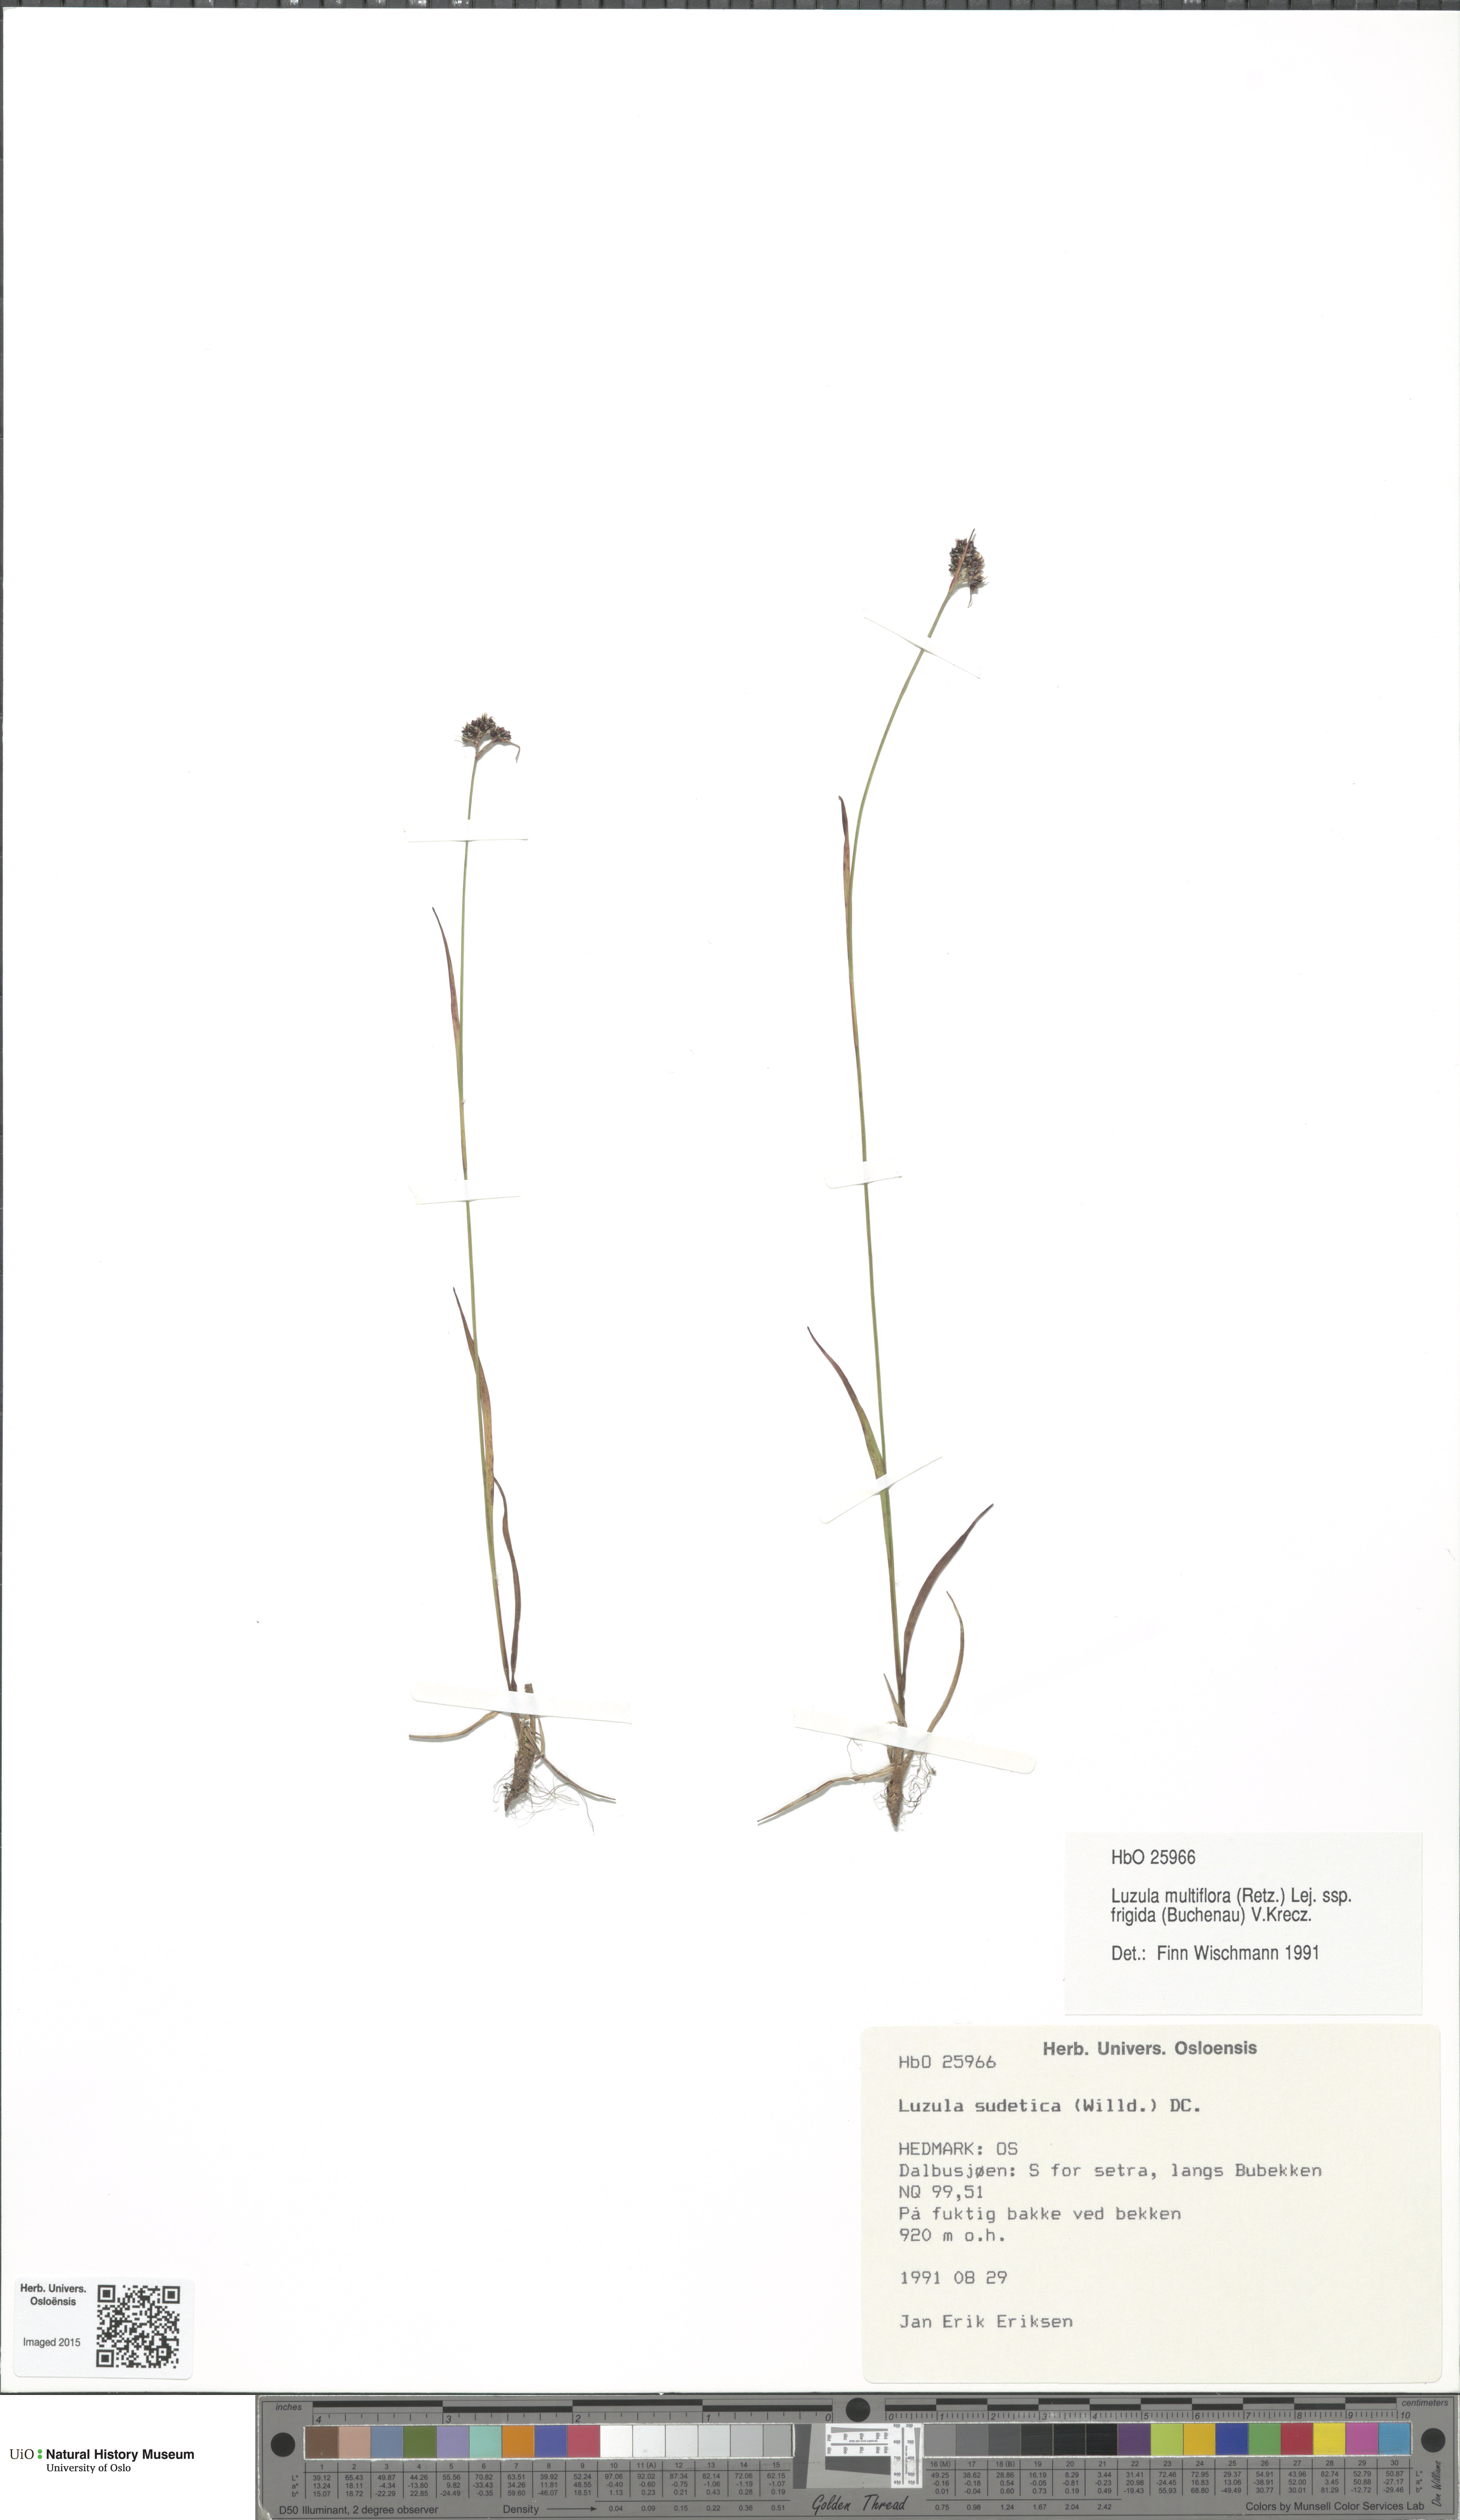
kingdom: Plantae
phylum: Tracheophyta
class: Liliopsida
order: Poales
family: Juncaceae
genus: Luzula
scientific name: Luzula multiflora
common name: Heath wood-rush
